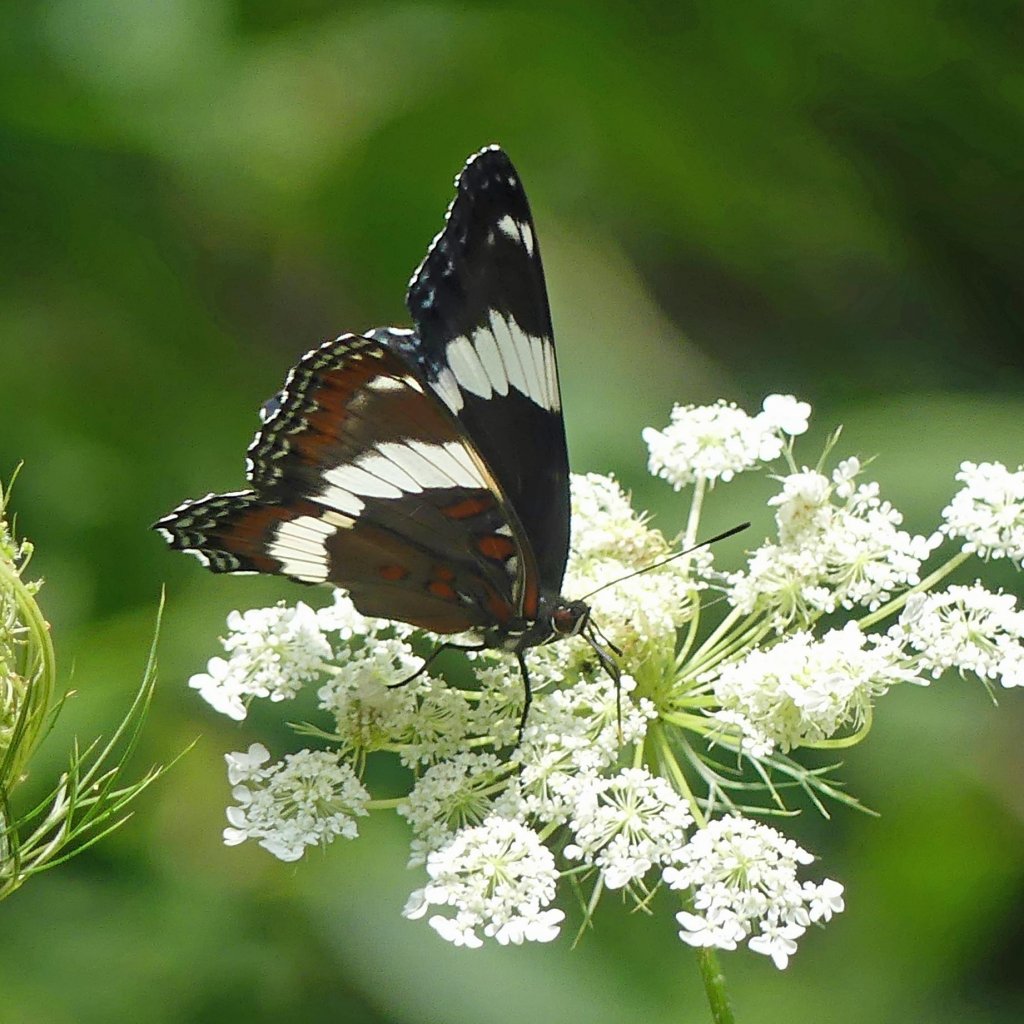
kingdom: Animalia
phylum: Arthropoda
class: Insecta
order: Lepidoptera
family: Nymphalidae
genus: Limenitis
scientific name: Limenitis arthemis
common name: Red-spotted Admiral
